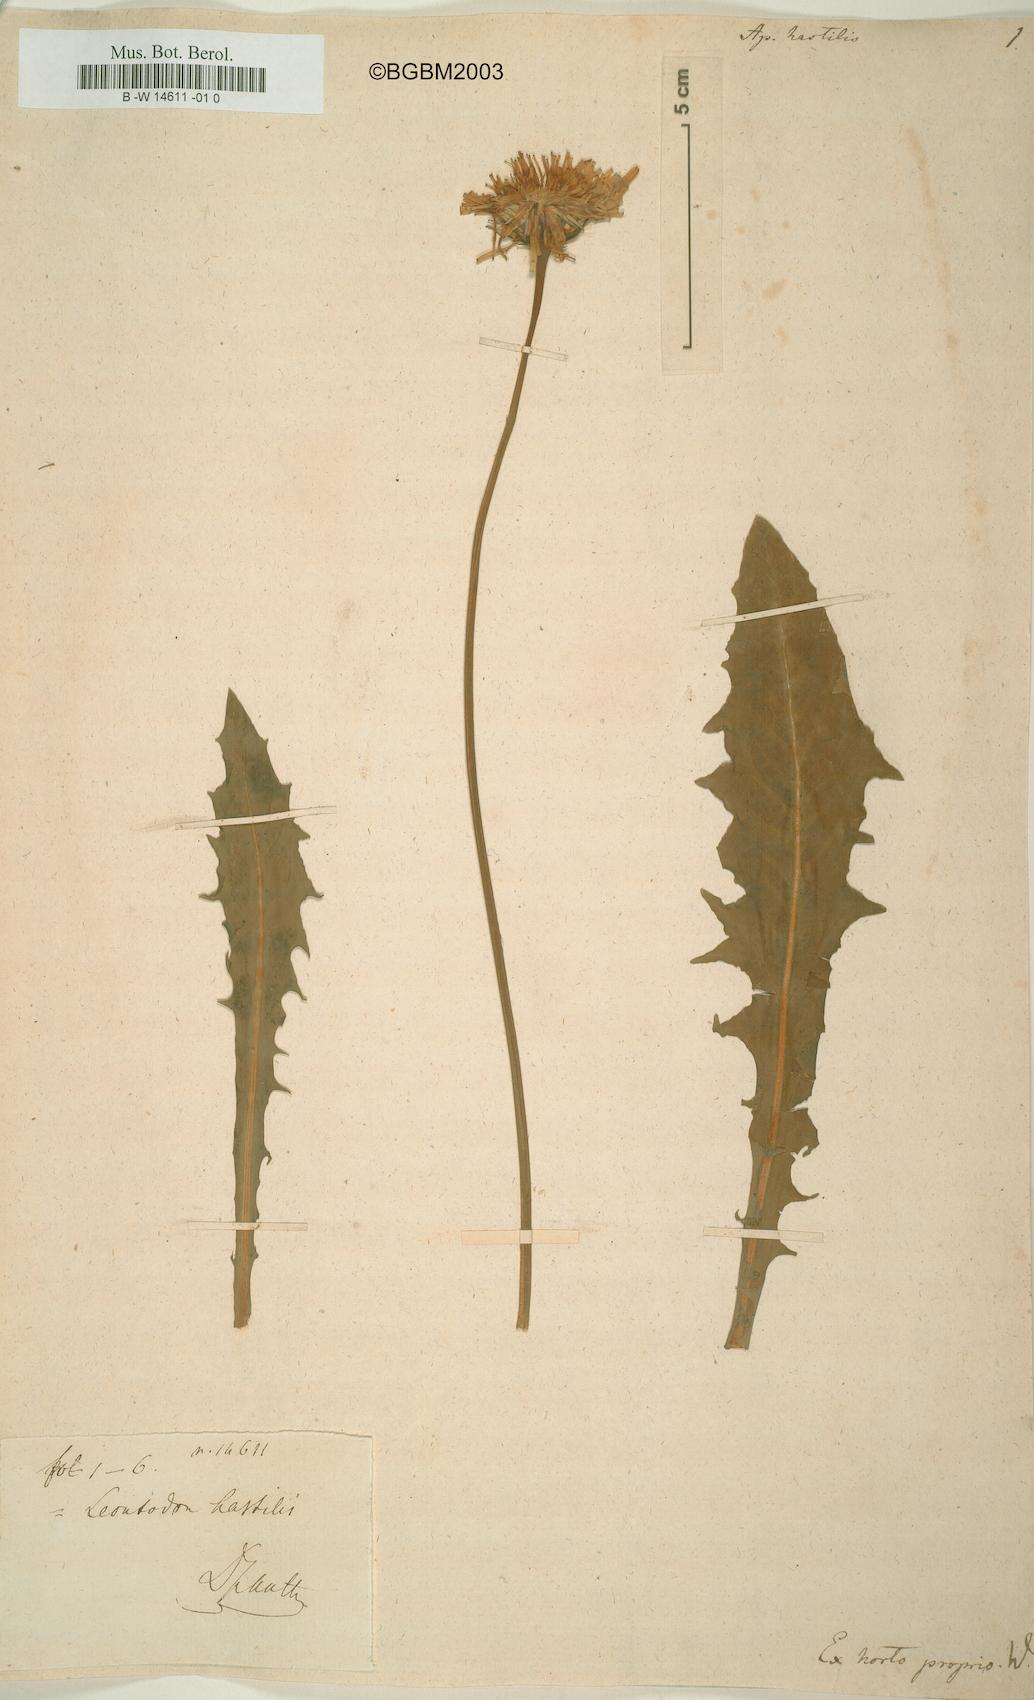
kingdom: Plantae
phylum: Tracheophyta
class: Magnoliopsida
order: Asterales
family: Asteraceae
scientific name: Asteraceae
